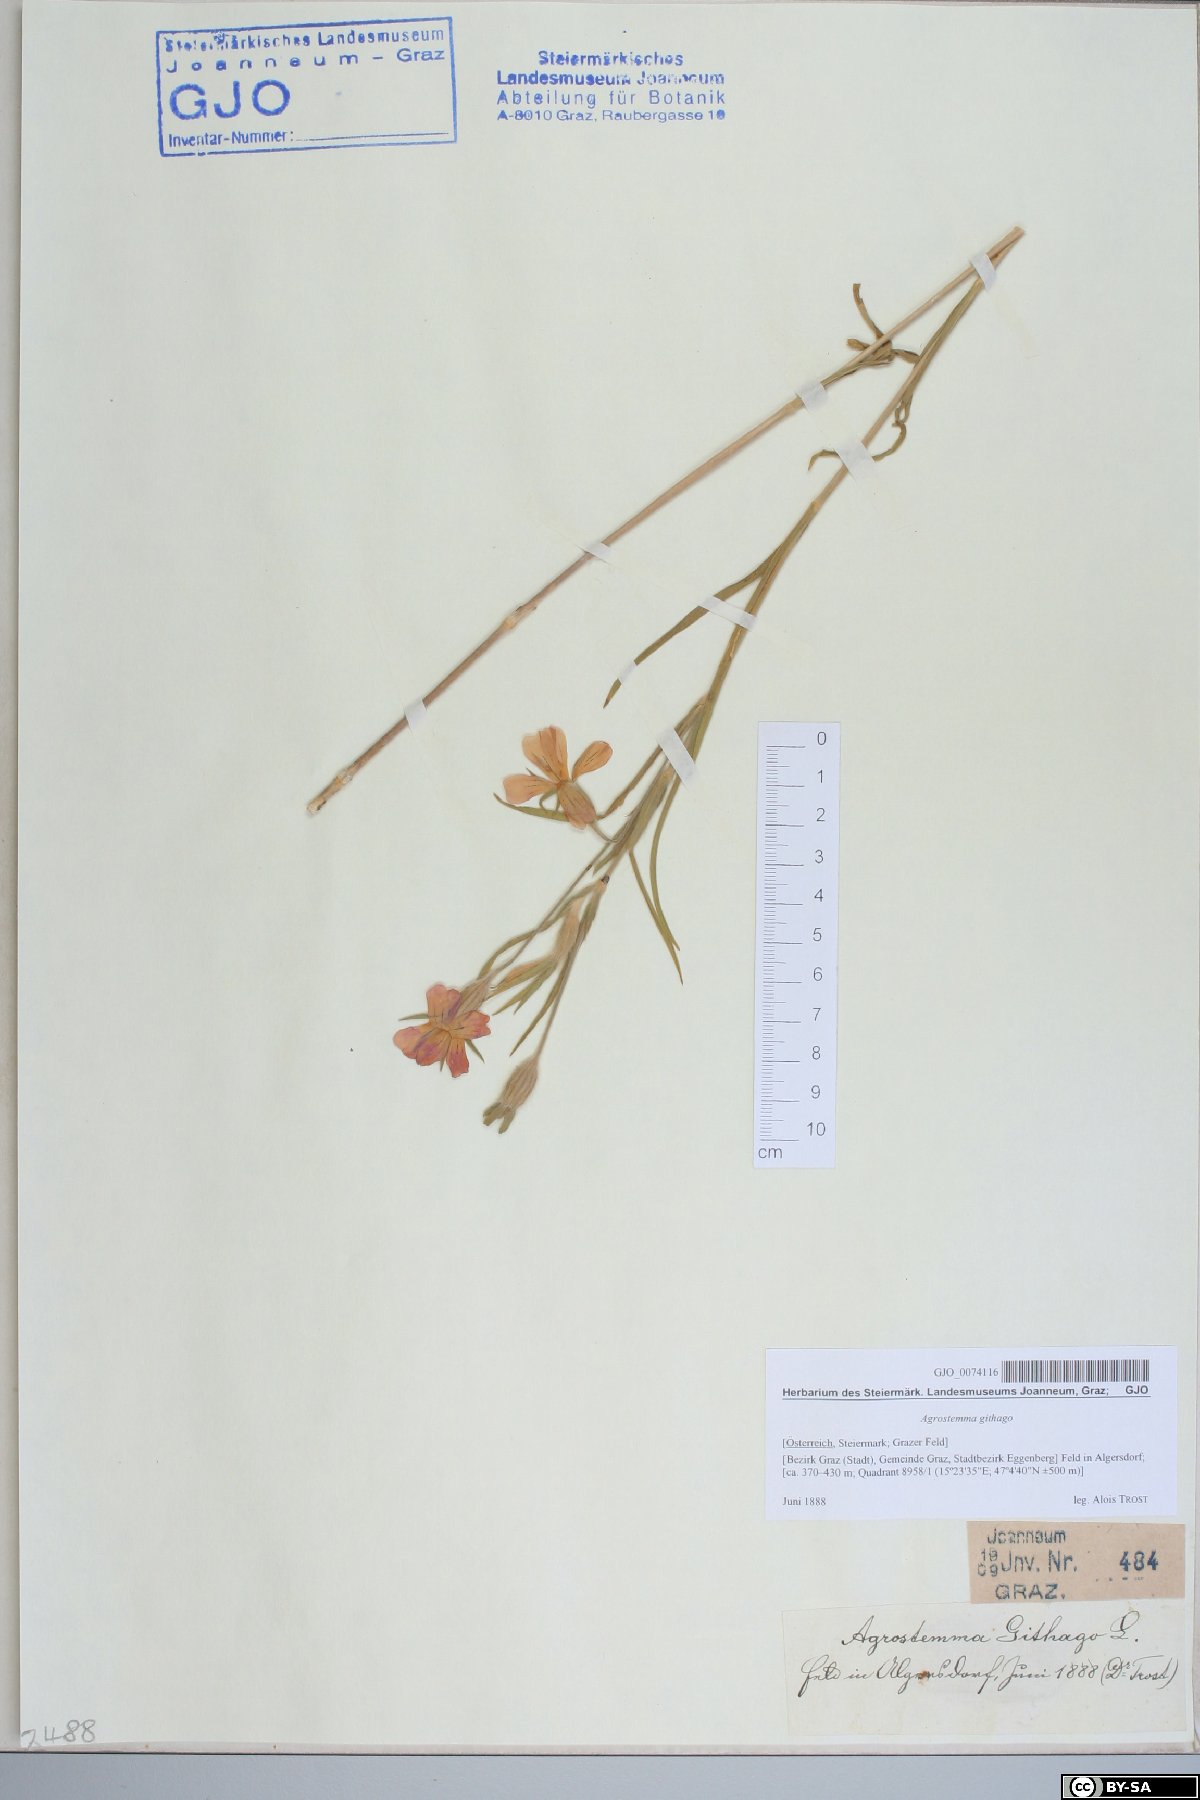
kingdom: Plantae
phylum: Tracheophyta
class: Magnoliopsida
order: Caryophyllales
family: Caryophyllaceae
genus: Agrostemma
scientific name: Agrostemma githago
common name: Common corncockle
